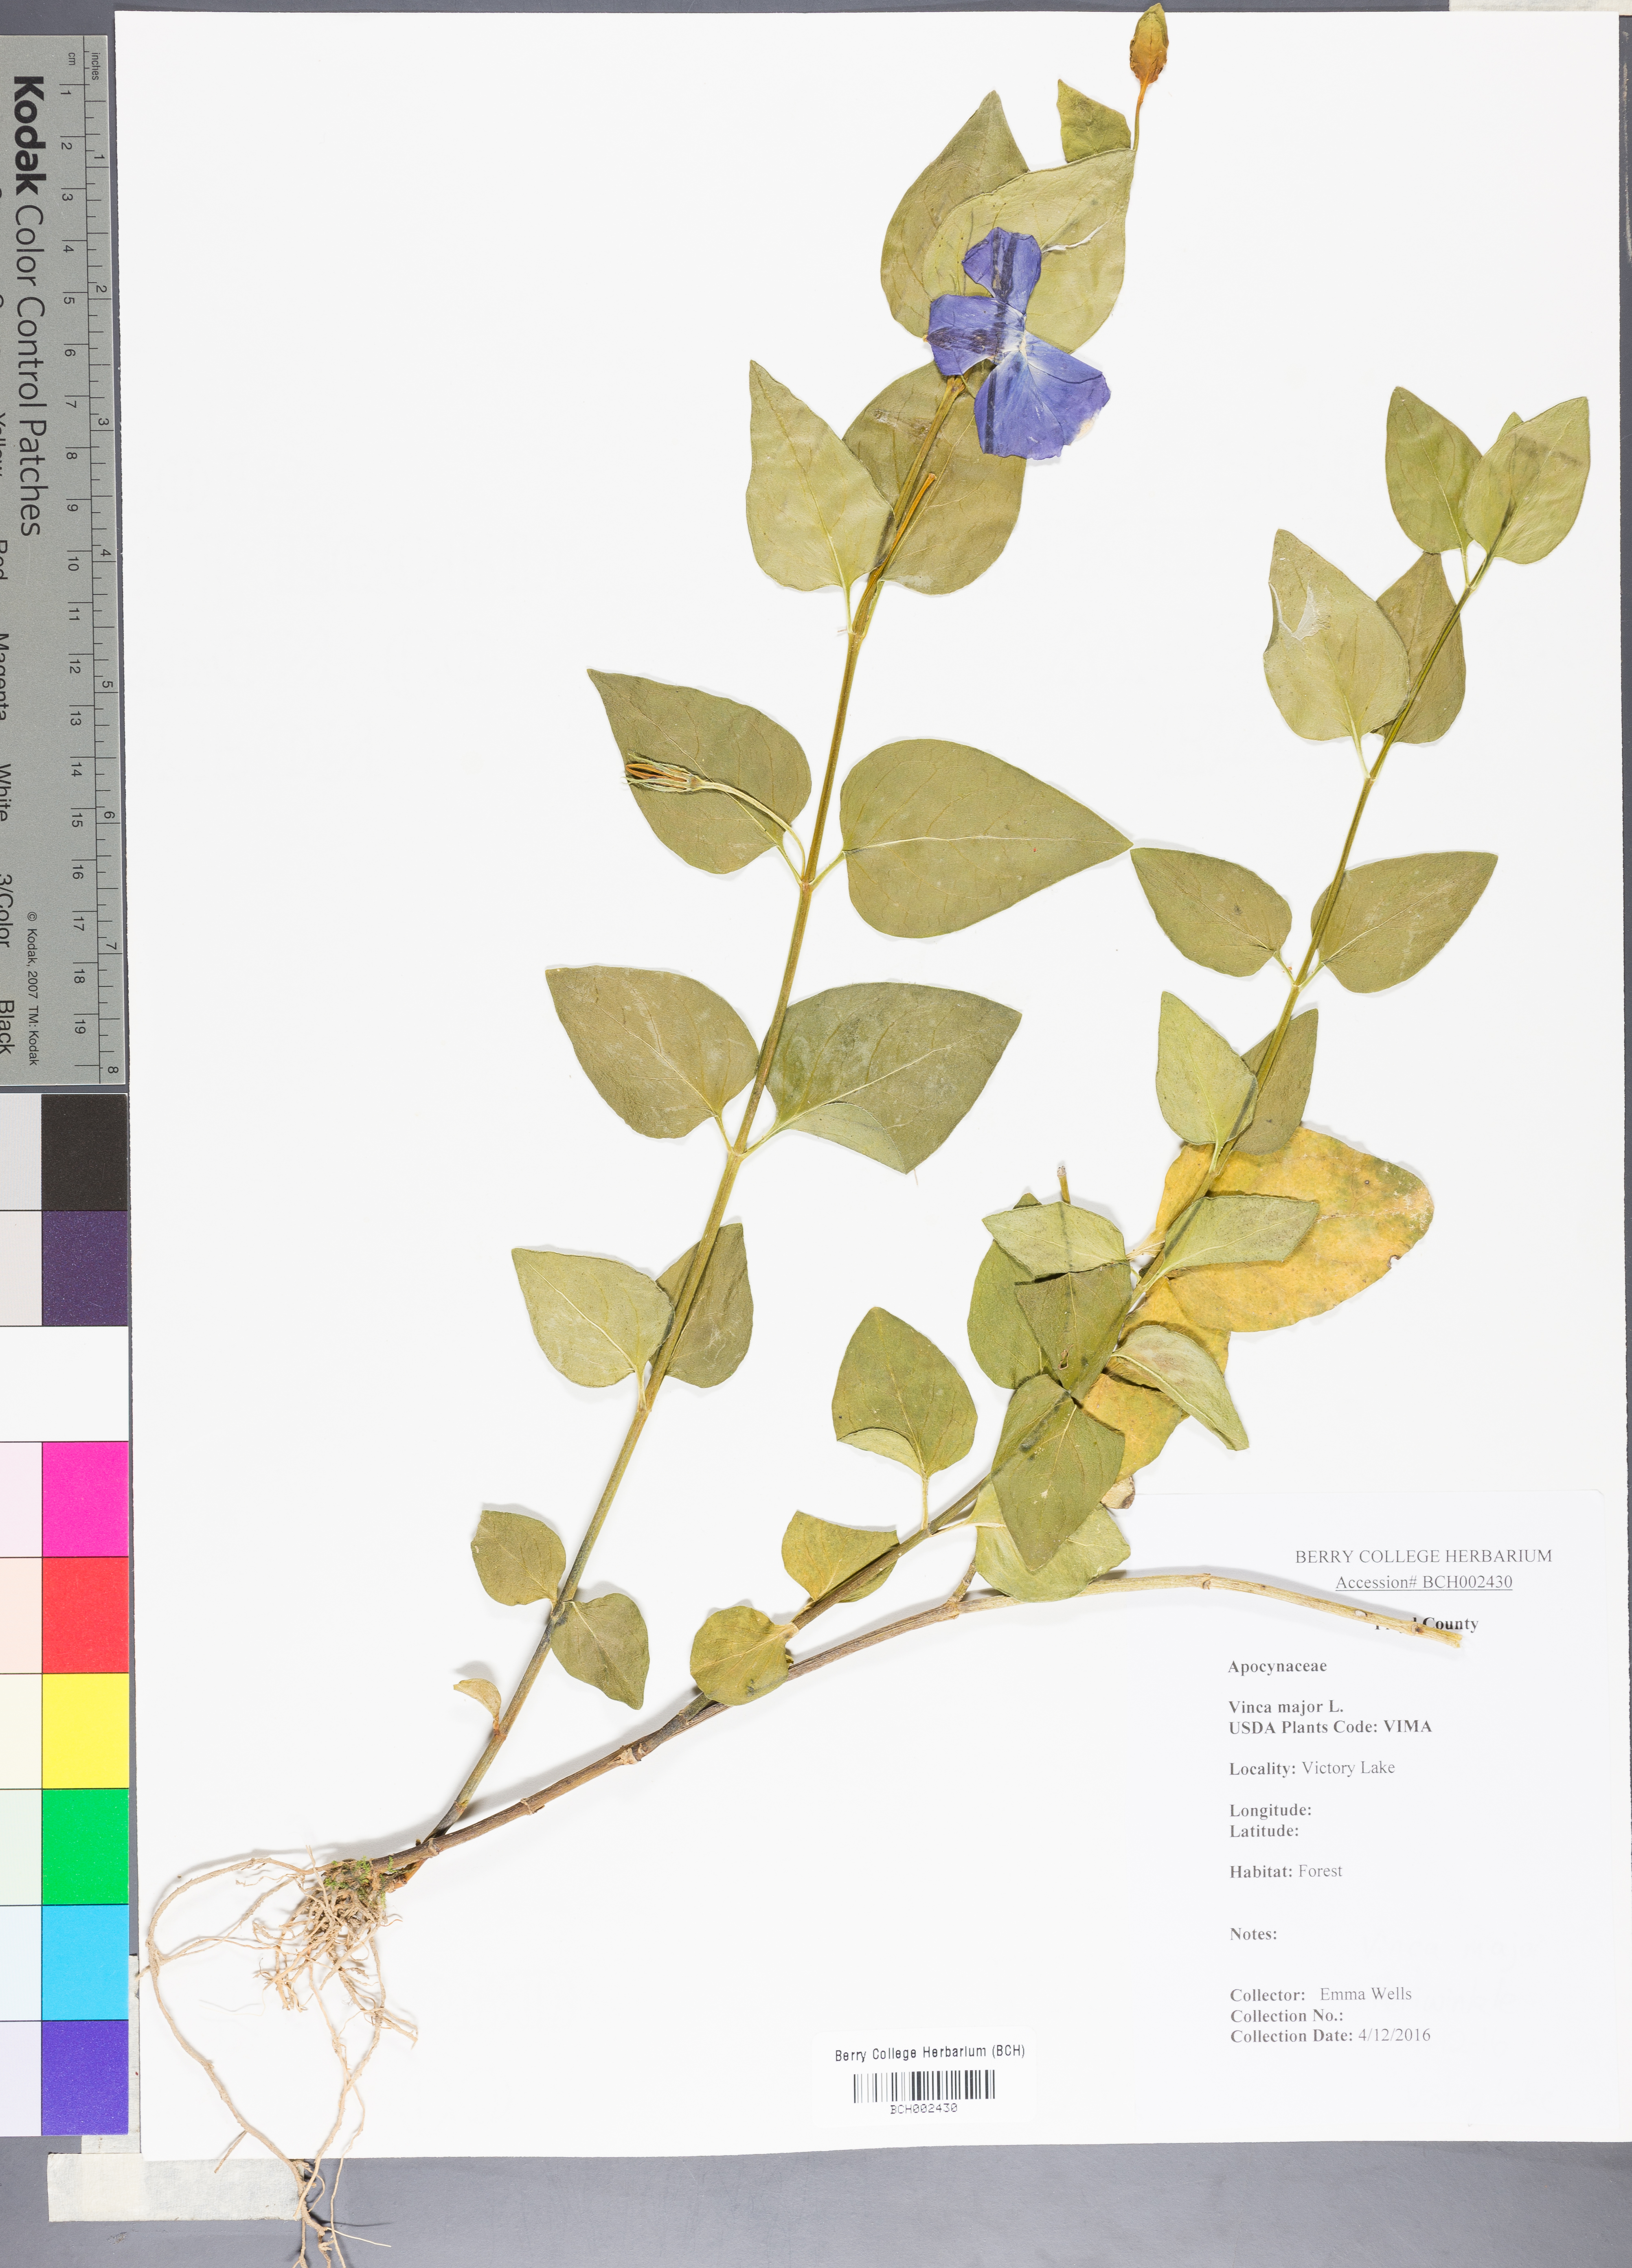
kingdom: Plantae
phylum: Tracheophyta
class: Magnoliopsida
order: Gentianales
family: Apocynaceae
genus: Vinca
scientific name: Vinca major
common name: Greater periwinkle
